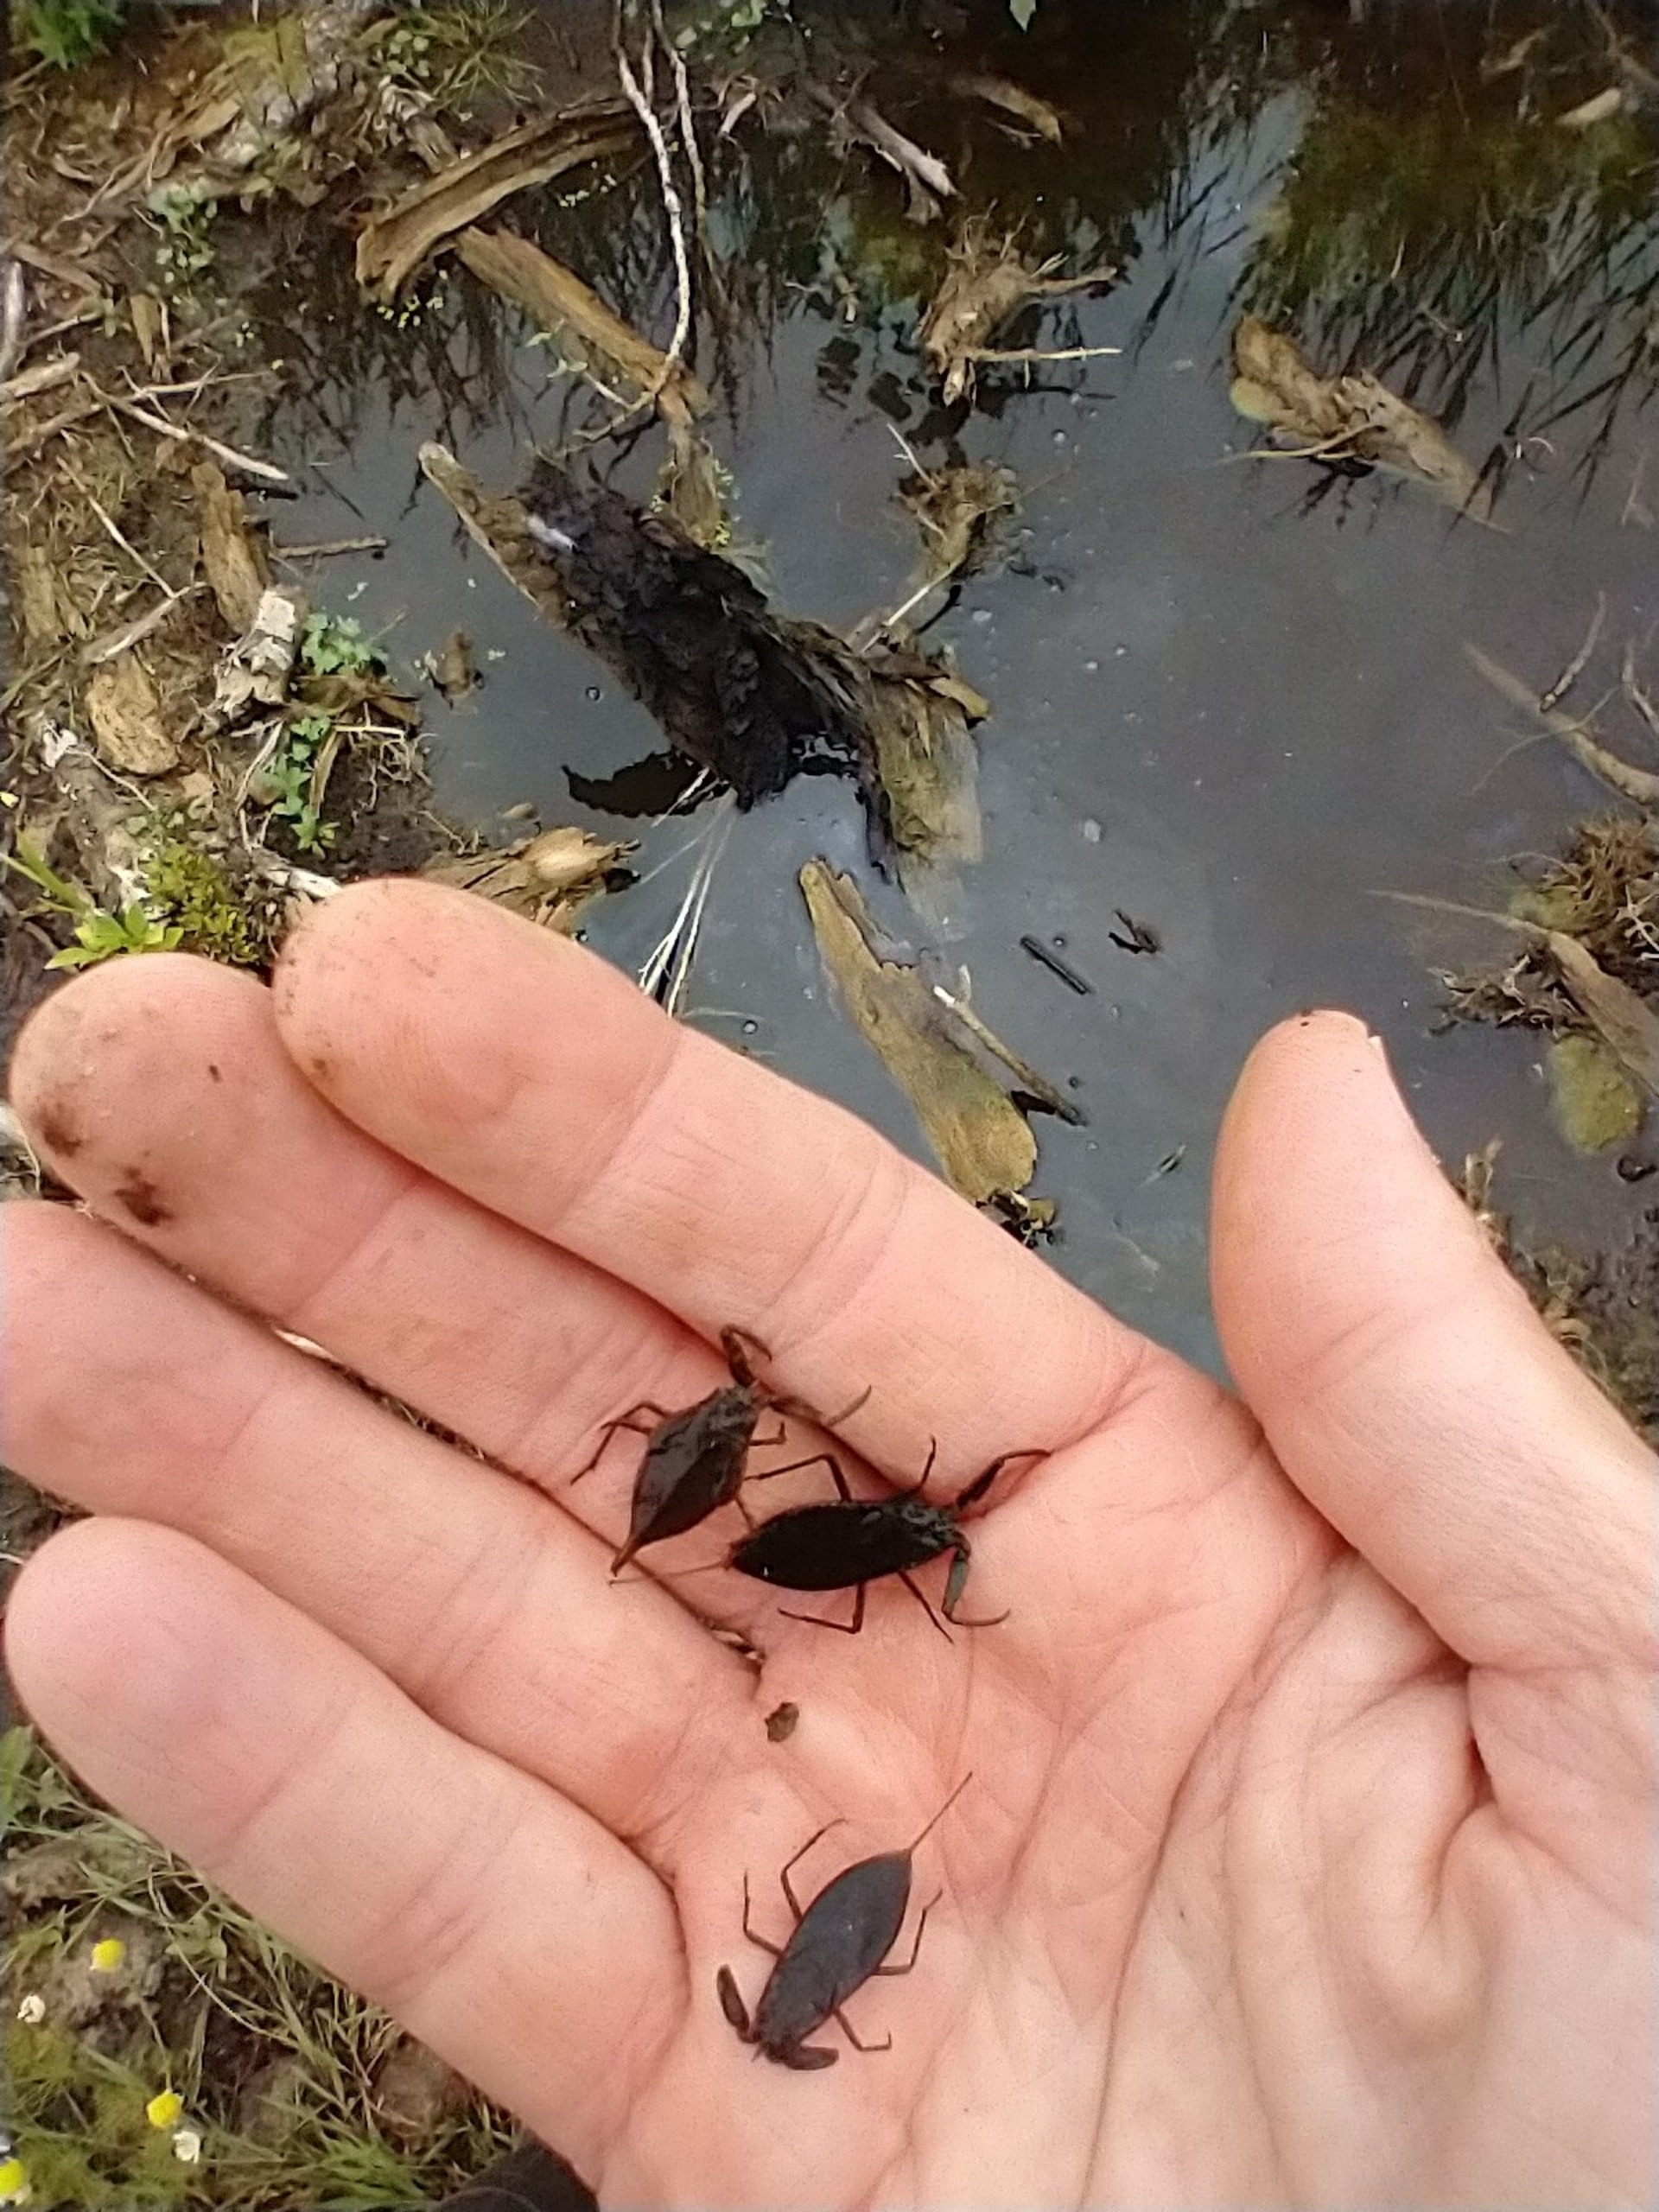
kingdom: Animalia
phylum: Arthropoda
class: Insecta
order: Hemiptera
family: Nepidae
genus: Nepa
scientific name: Nepa cinerea
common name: Skorpiontæge
